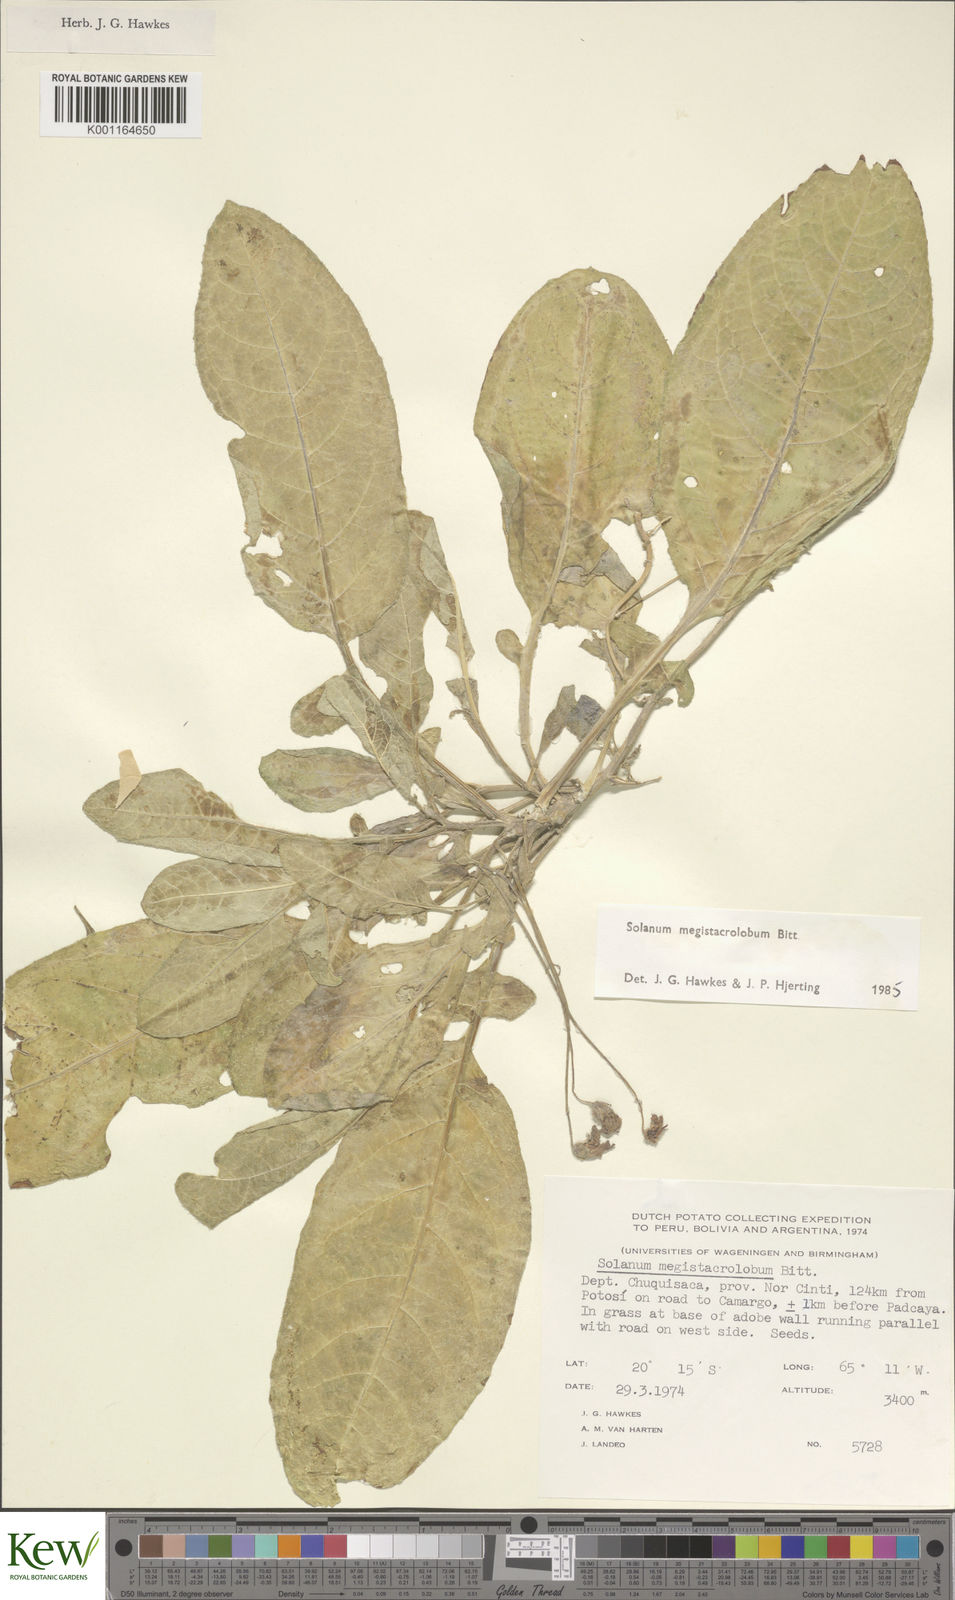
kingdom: Plantae
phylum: Tracheophyta
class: Magnoliopsida
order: Solanales
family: Solanaceae
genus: Solanum
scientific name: Solanum boliviense
